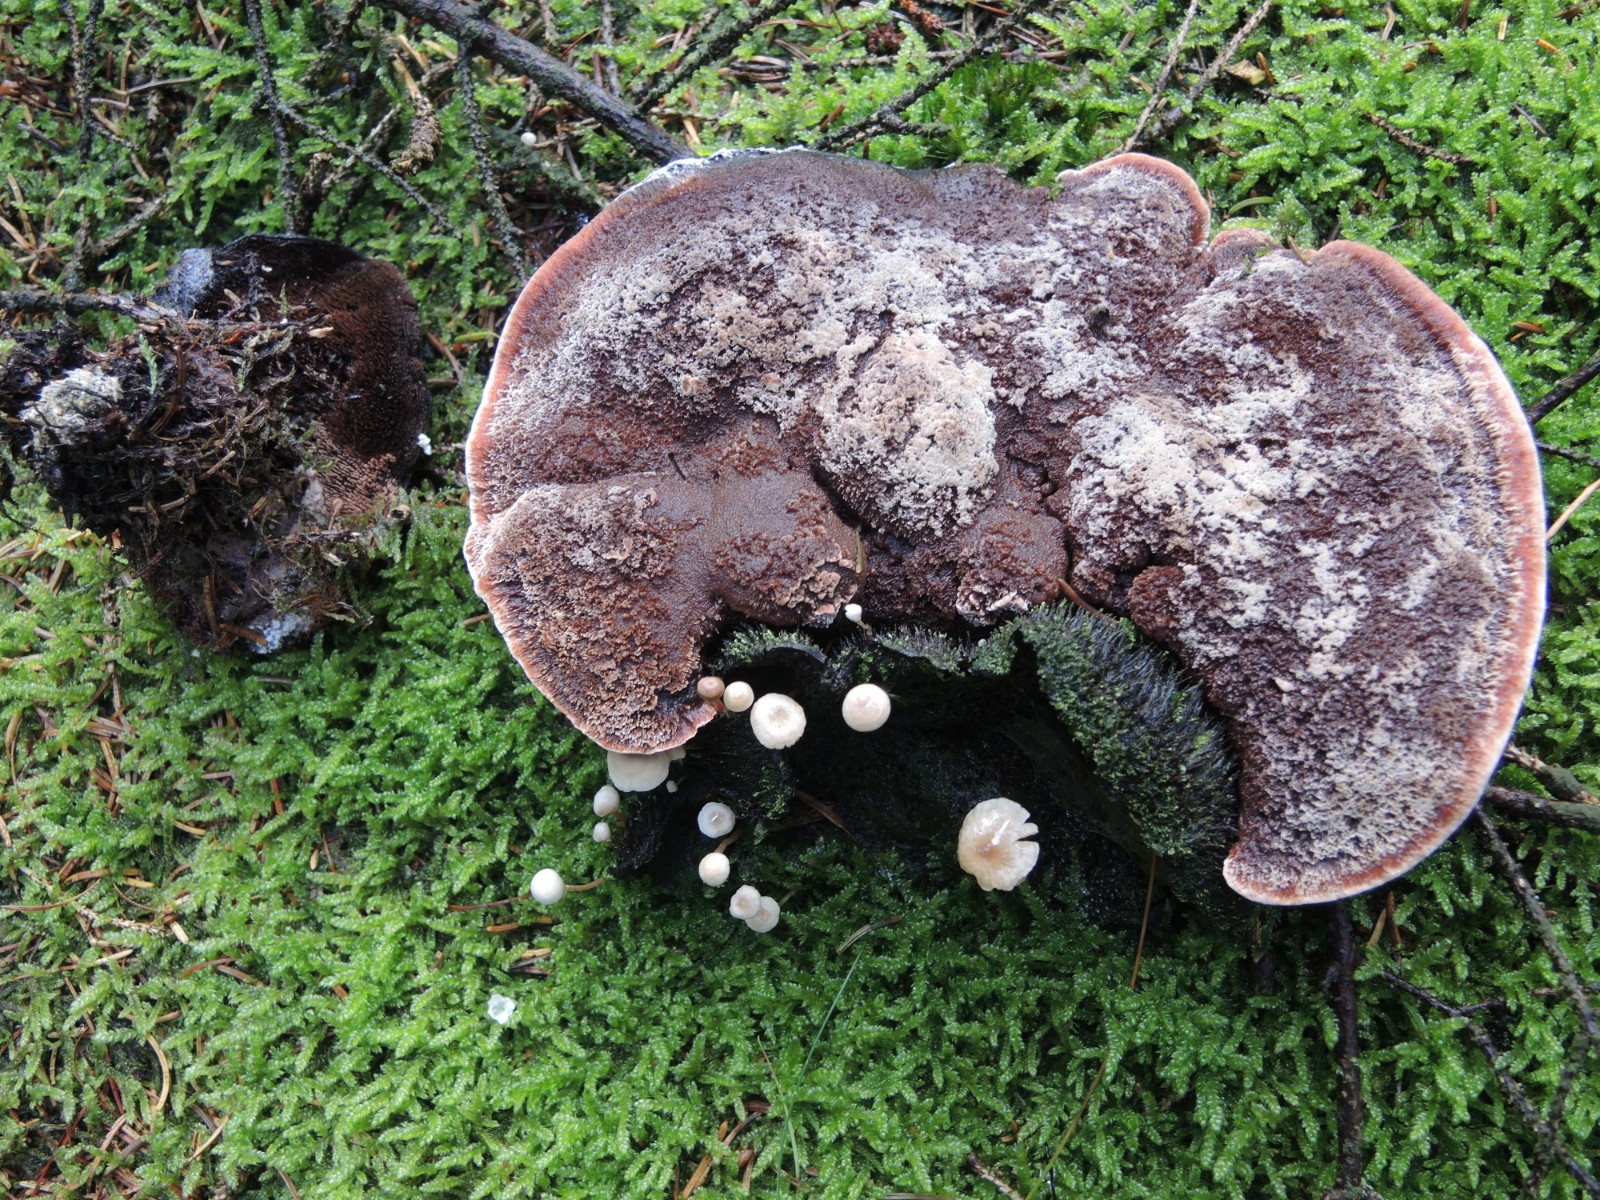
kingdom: Fungi
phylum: Basidiomycota
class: Agaricomycetes
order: Thelephorales
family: Bankeraceae
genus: Hydnellum
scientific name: Hydnellum ferrugineum
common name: rust-korkpigsvamp
